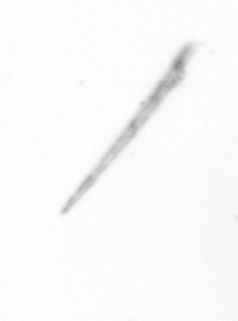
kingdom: Chromista
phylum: Ochrophyta
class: Bacillariophyceae
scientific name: Bacillariophyceae
